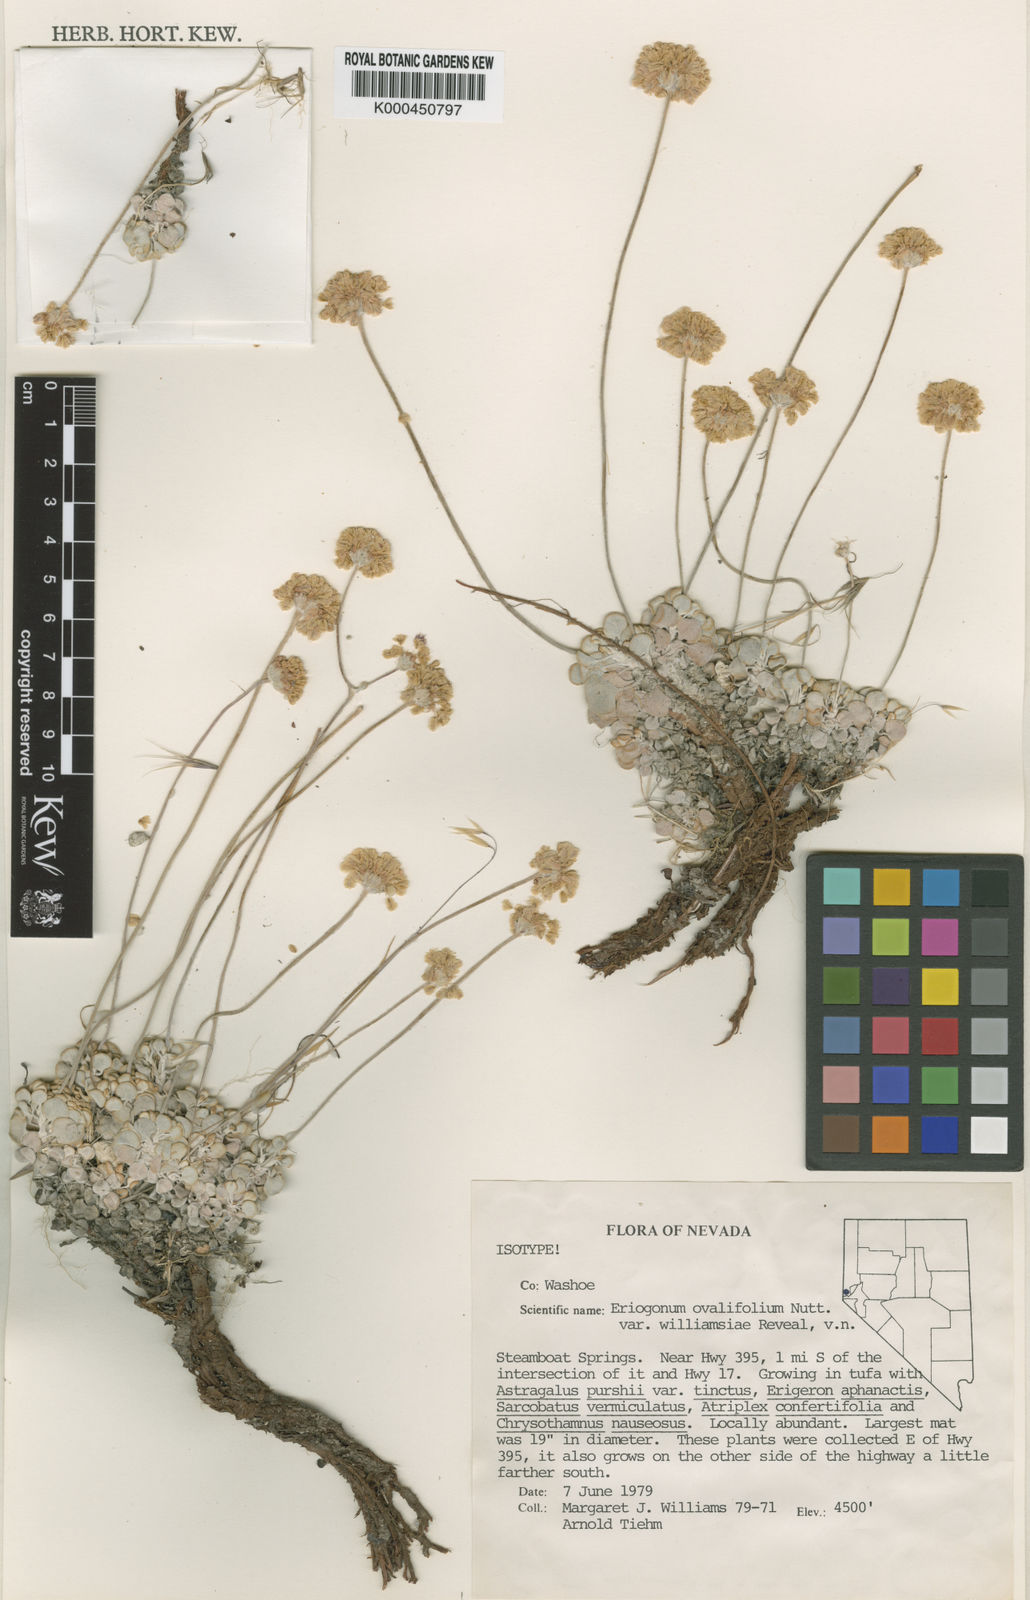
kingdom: Plantae
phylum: Tracheophyta
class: Magnoliopsida
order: Caryophyllales
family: Polygonaceae
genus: Eriogonum
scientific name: Eriogonum ovalifolium
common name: Cushion buckwheat
